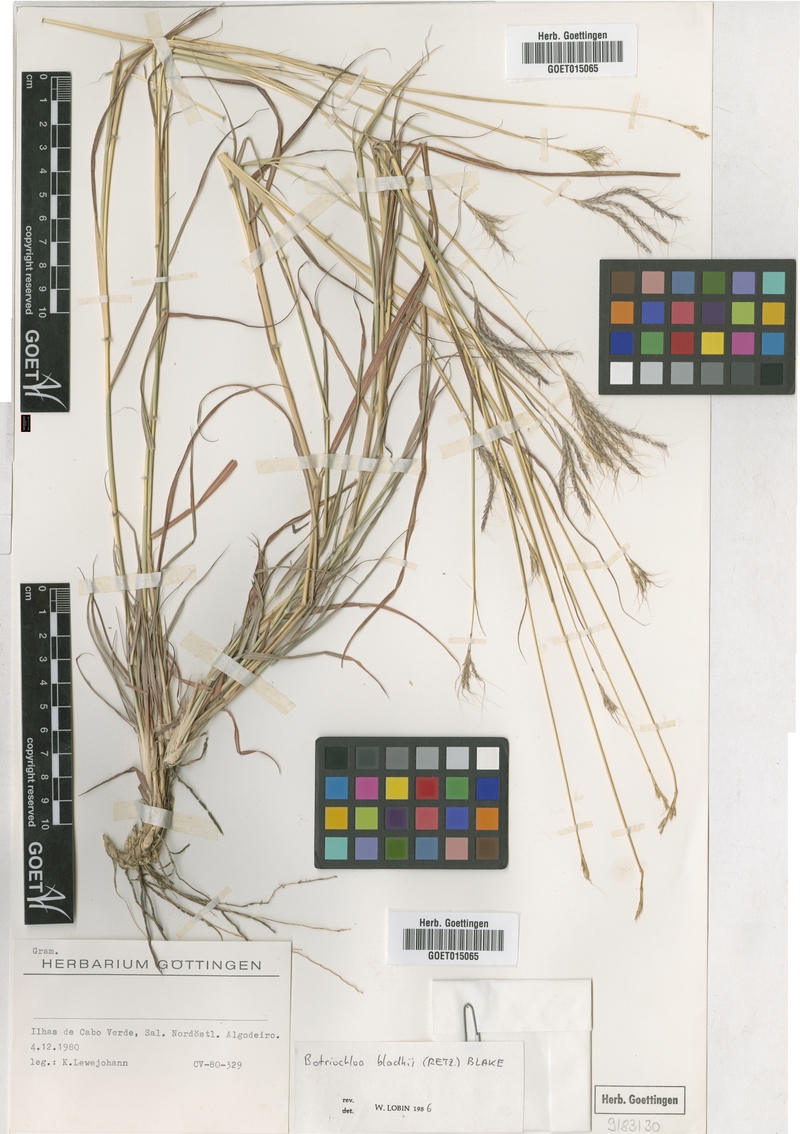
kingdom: Plantae
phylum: Tracheophyta
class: Liliopsida
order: Poales
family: Poaceae
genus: Bothriochloa
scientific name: Bothriochloa bladhii
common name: Caucasian bluestem
